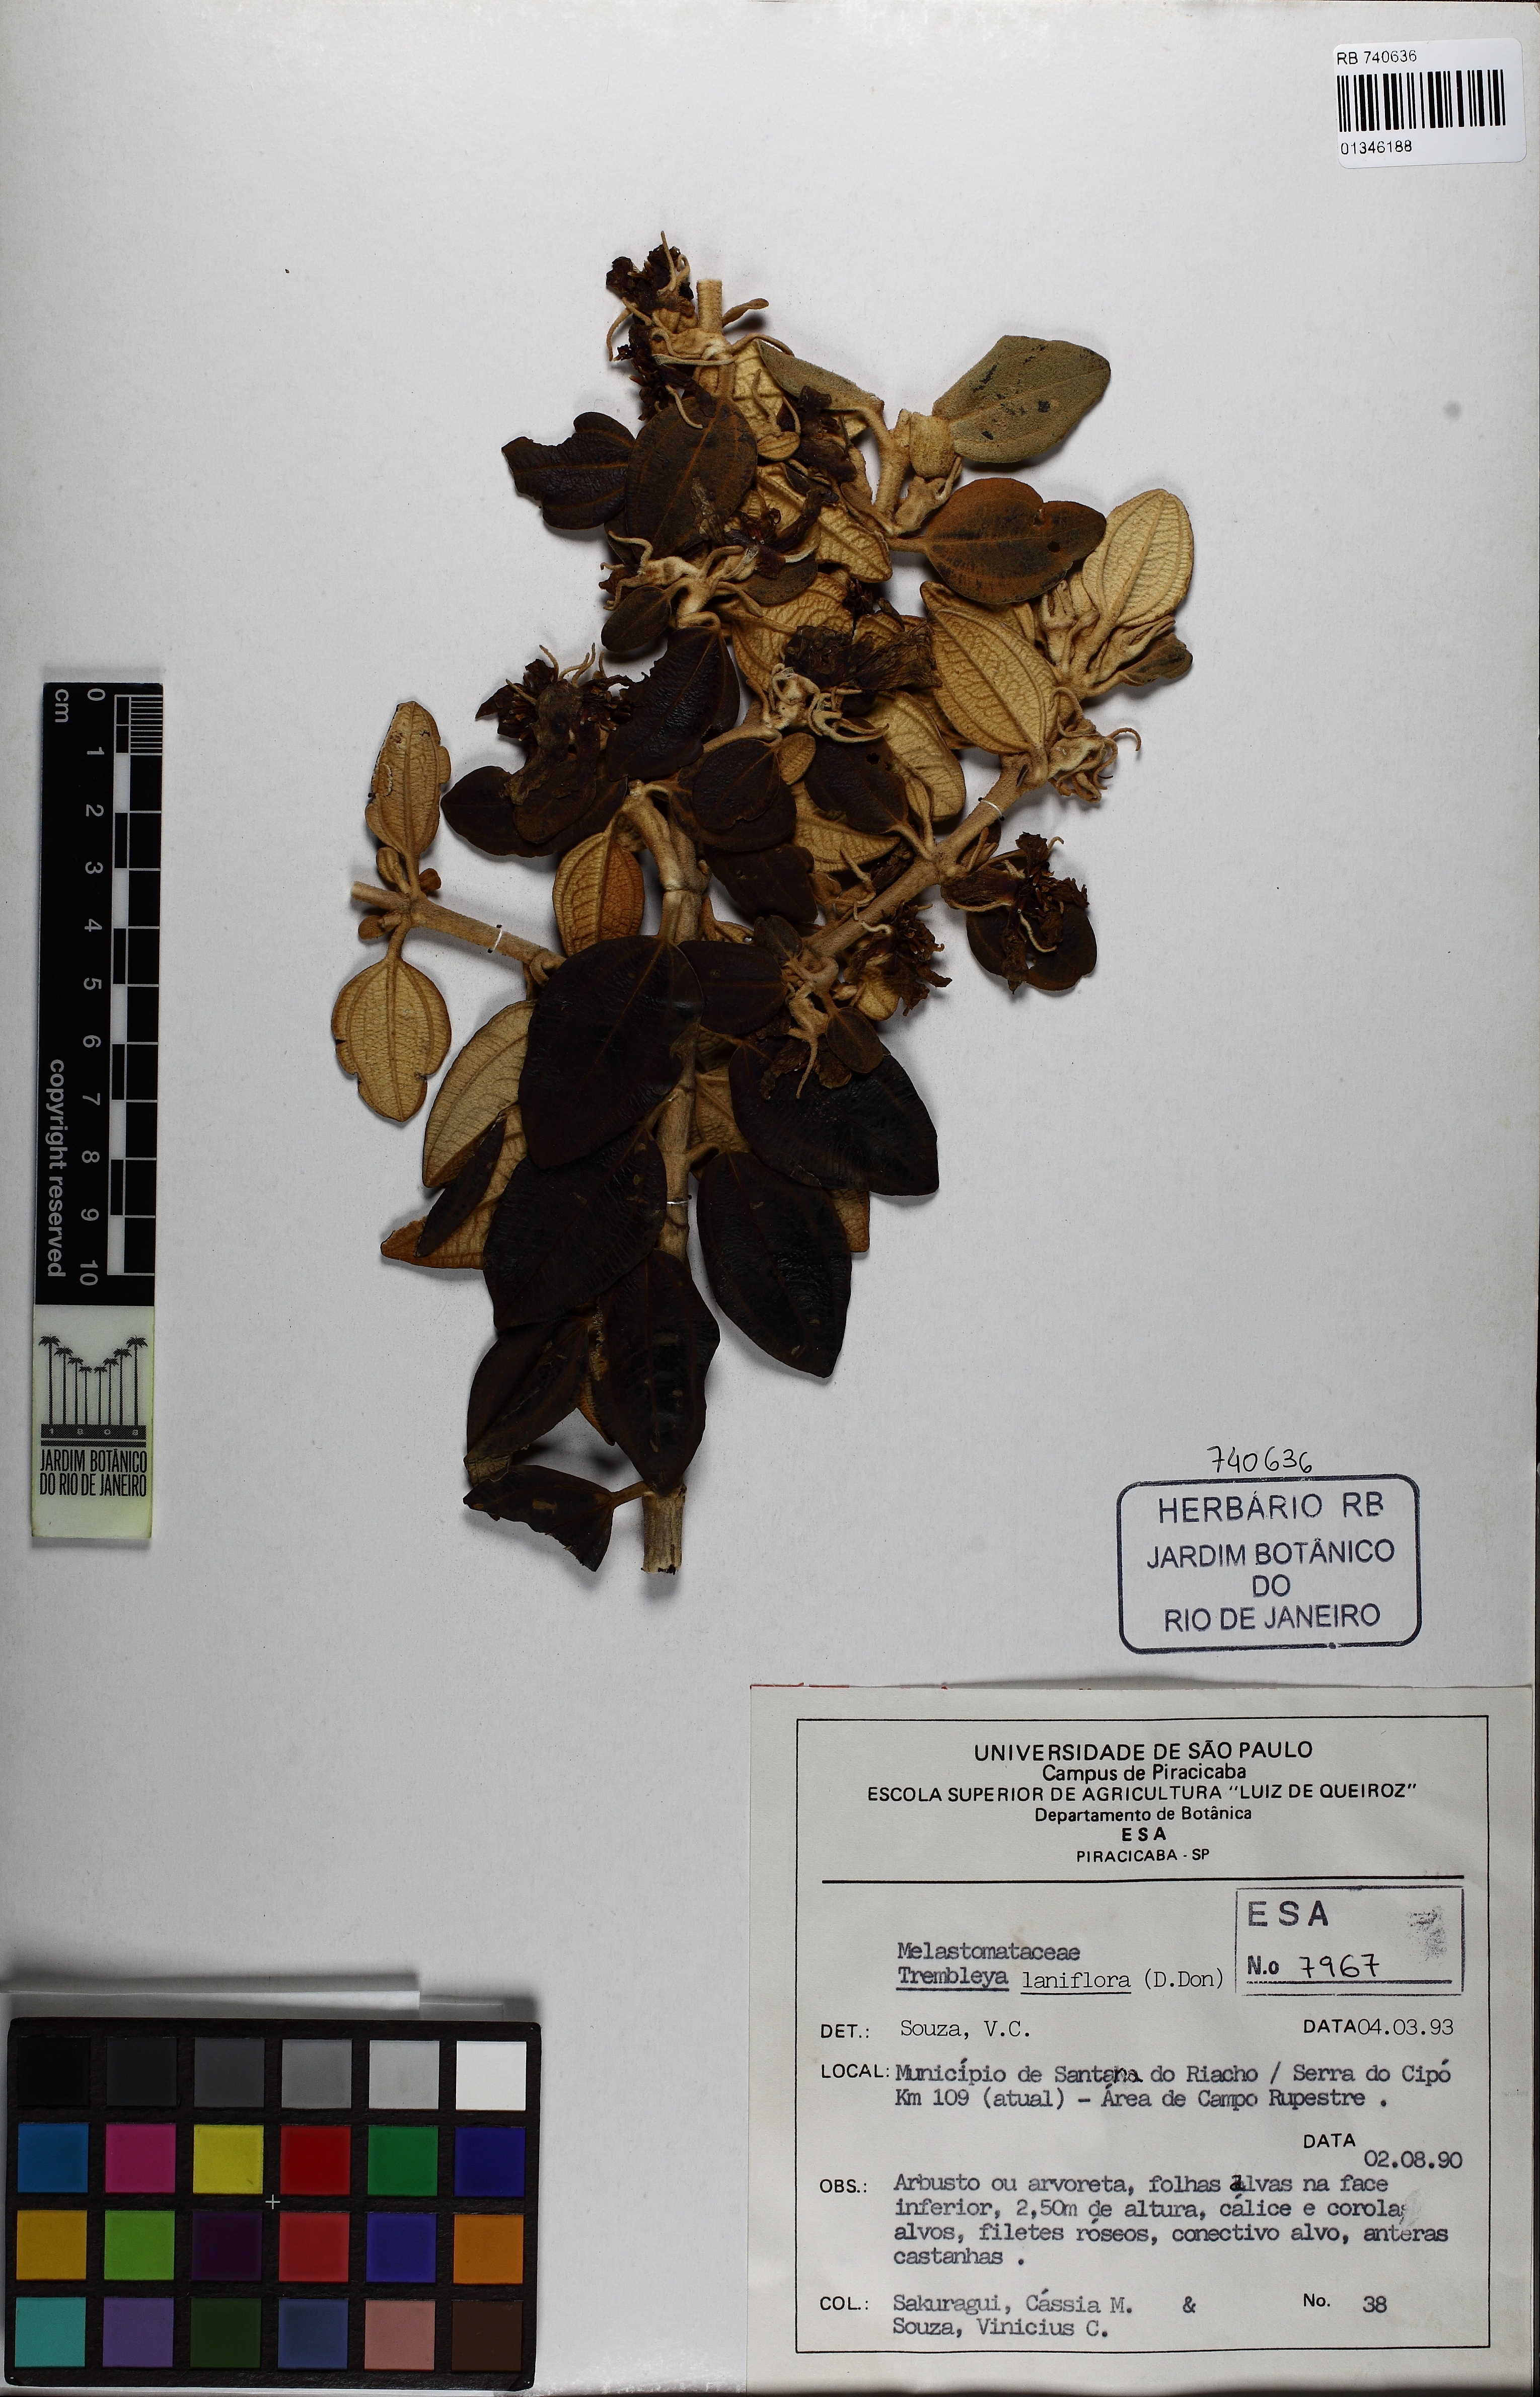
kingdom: Plantae
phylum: Tracheophyta
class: Magnoliopsida
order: Myrtales
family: Melastomataceae
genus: Microlicia
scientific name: Microlicia laniflora
